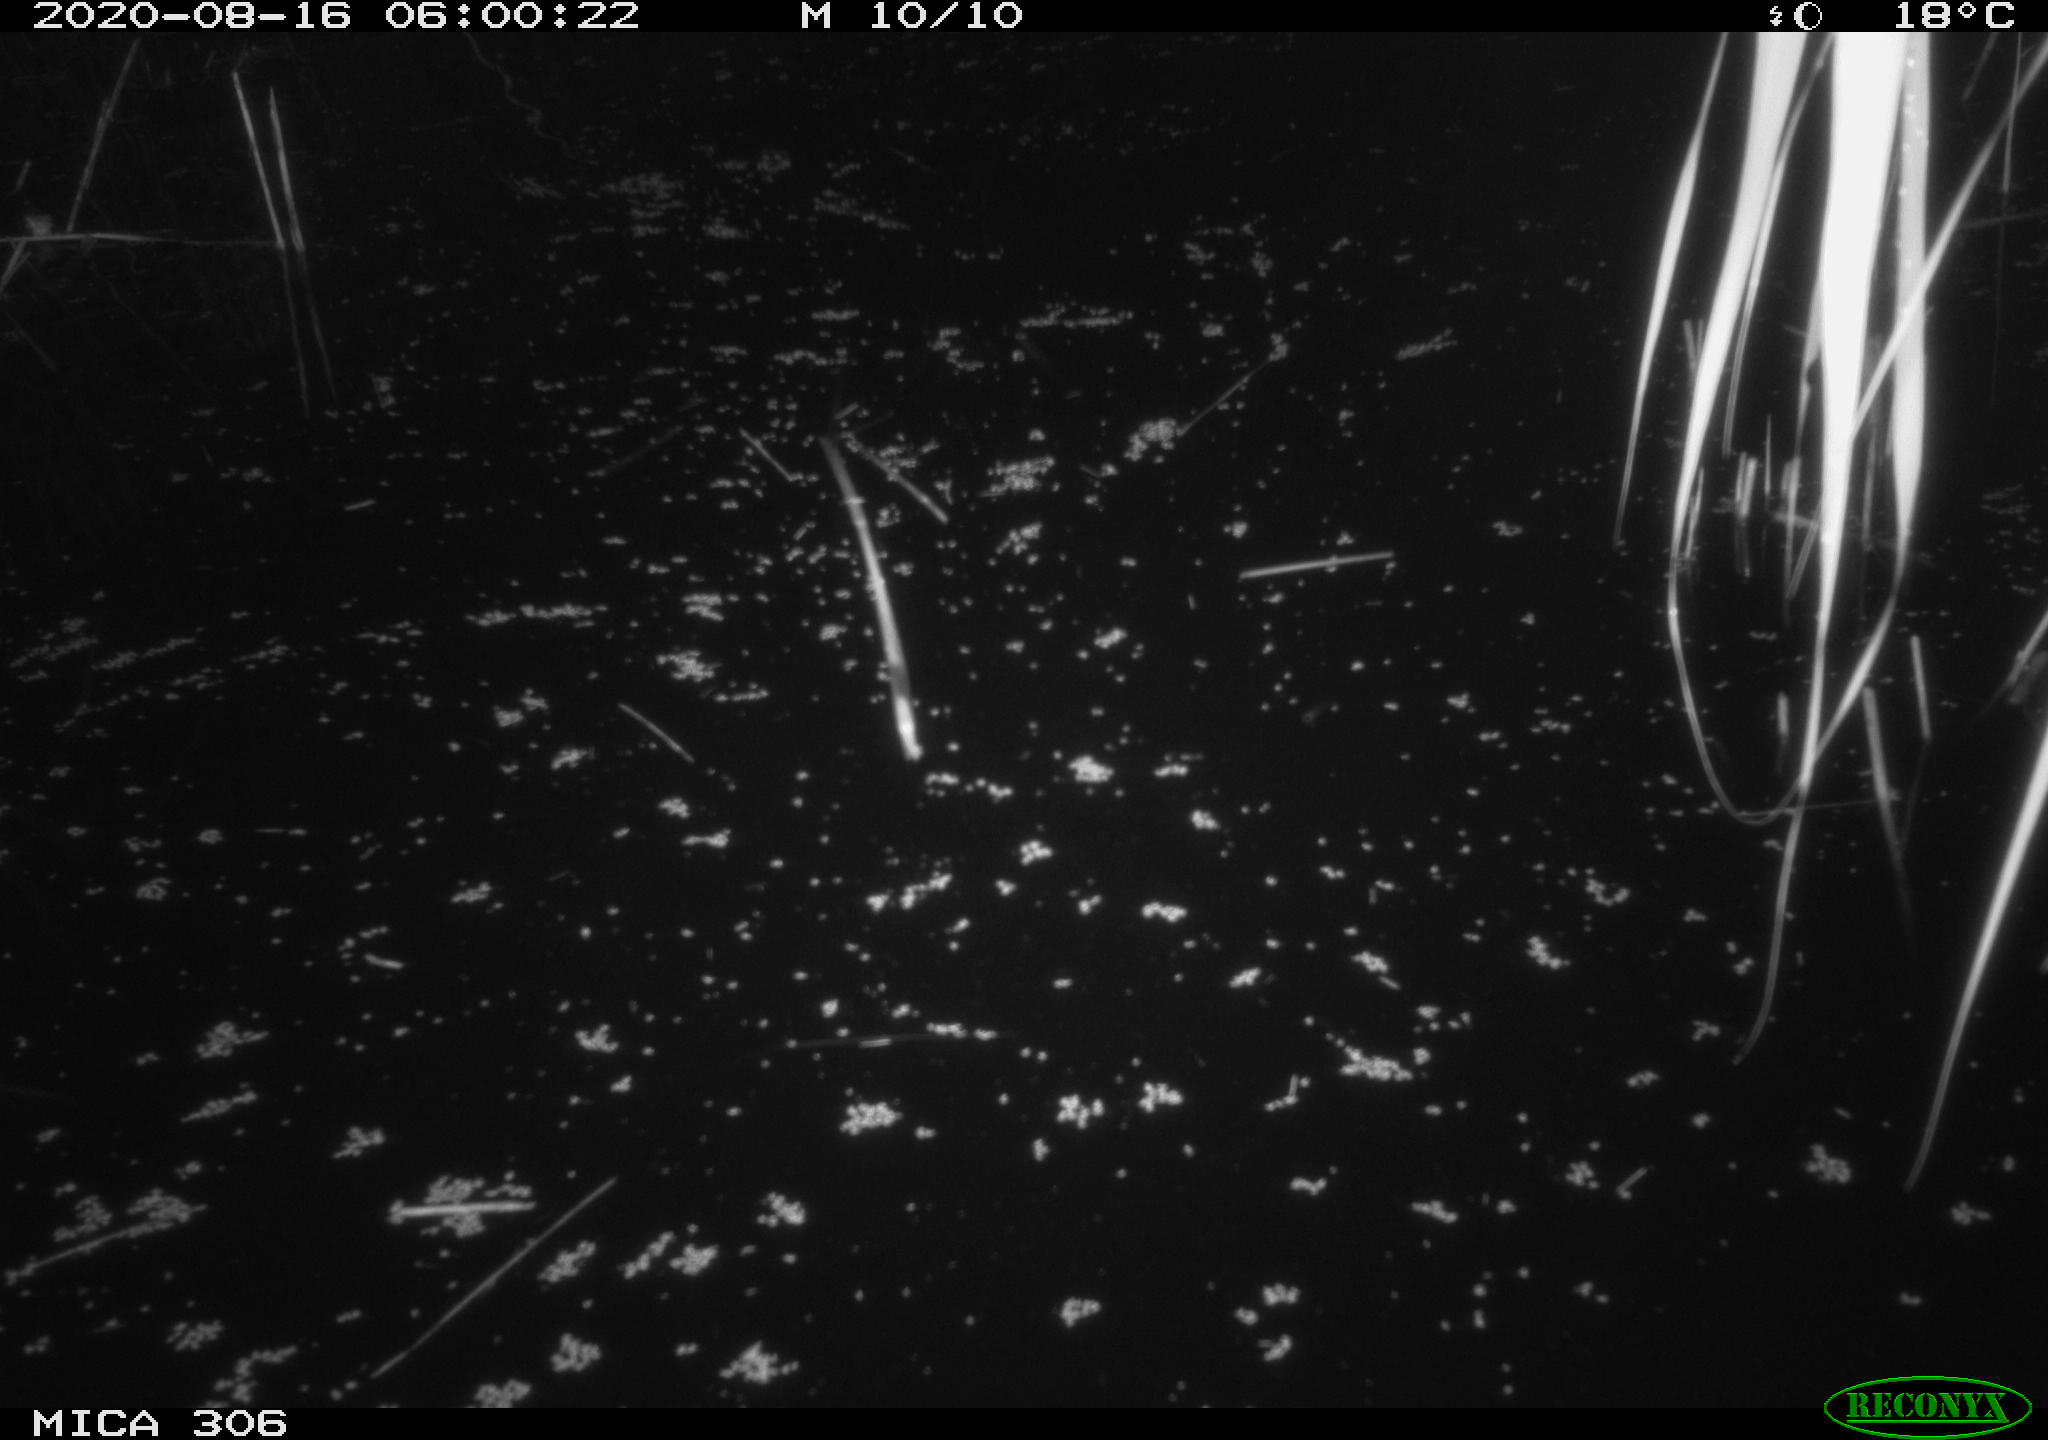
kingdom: Animalia
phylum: Chordata
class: Mammalia
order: Rodentia
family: Muridae
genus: Rattus
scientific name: Rattus norvegicus
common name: Brown rat
